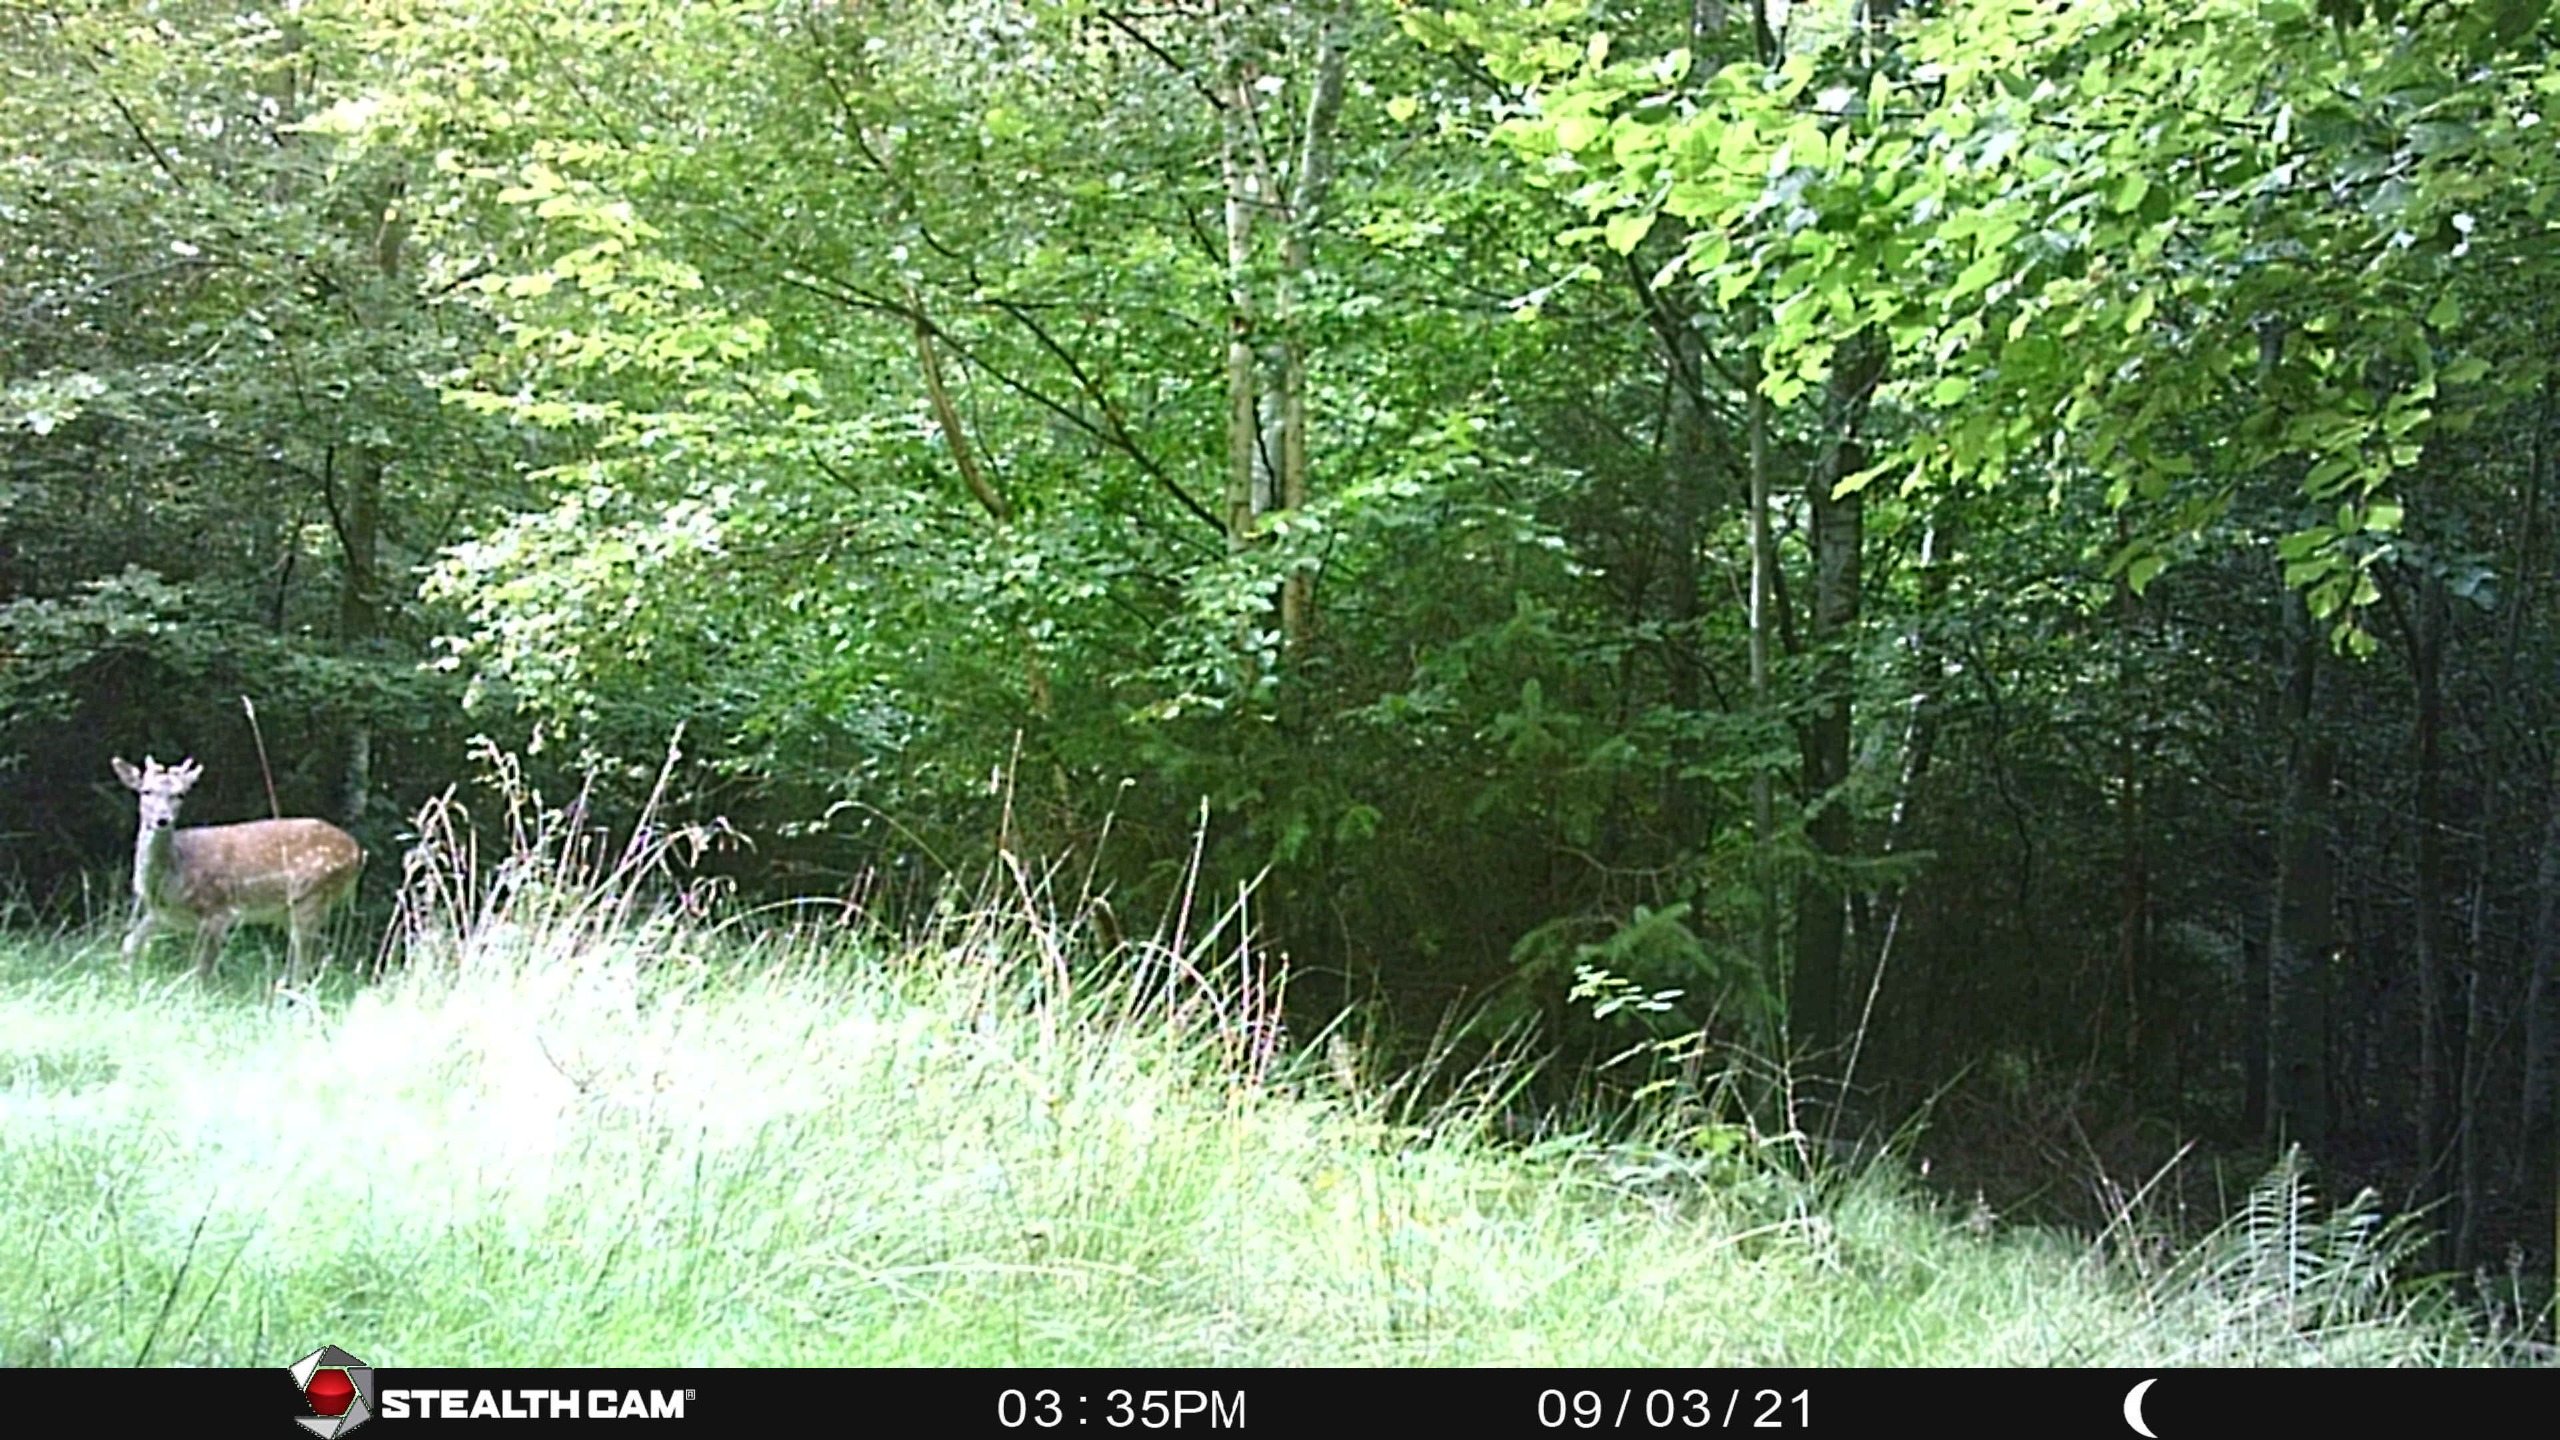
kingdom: Animalia
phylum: Chordata
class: Mammalia
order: Artiodactyla
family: Cervidae
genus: Dama
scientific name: Dama dama
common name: Dådyr
